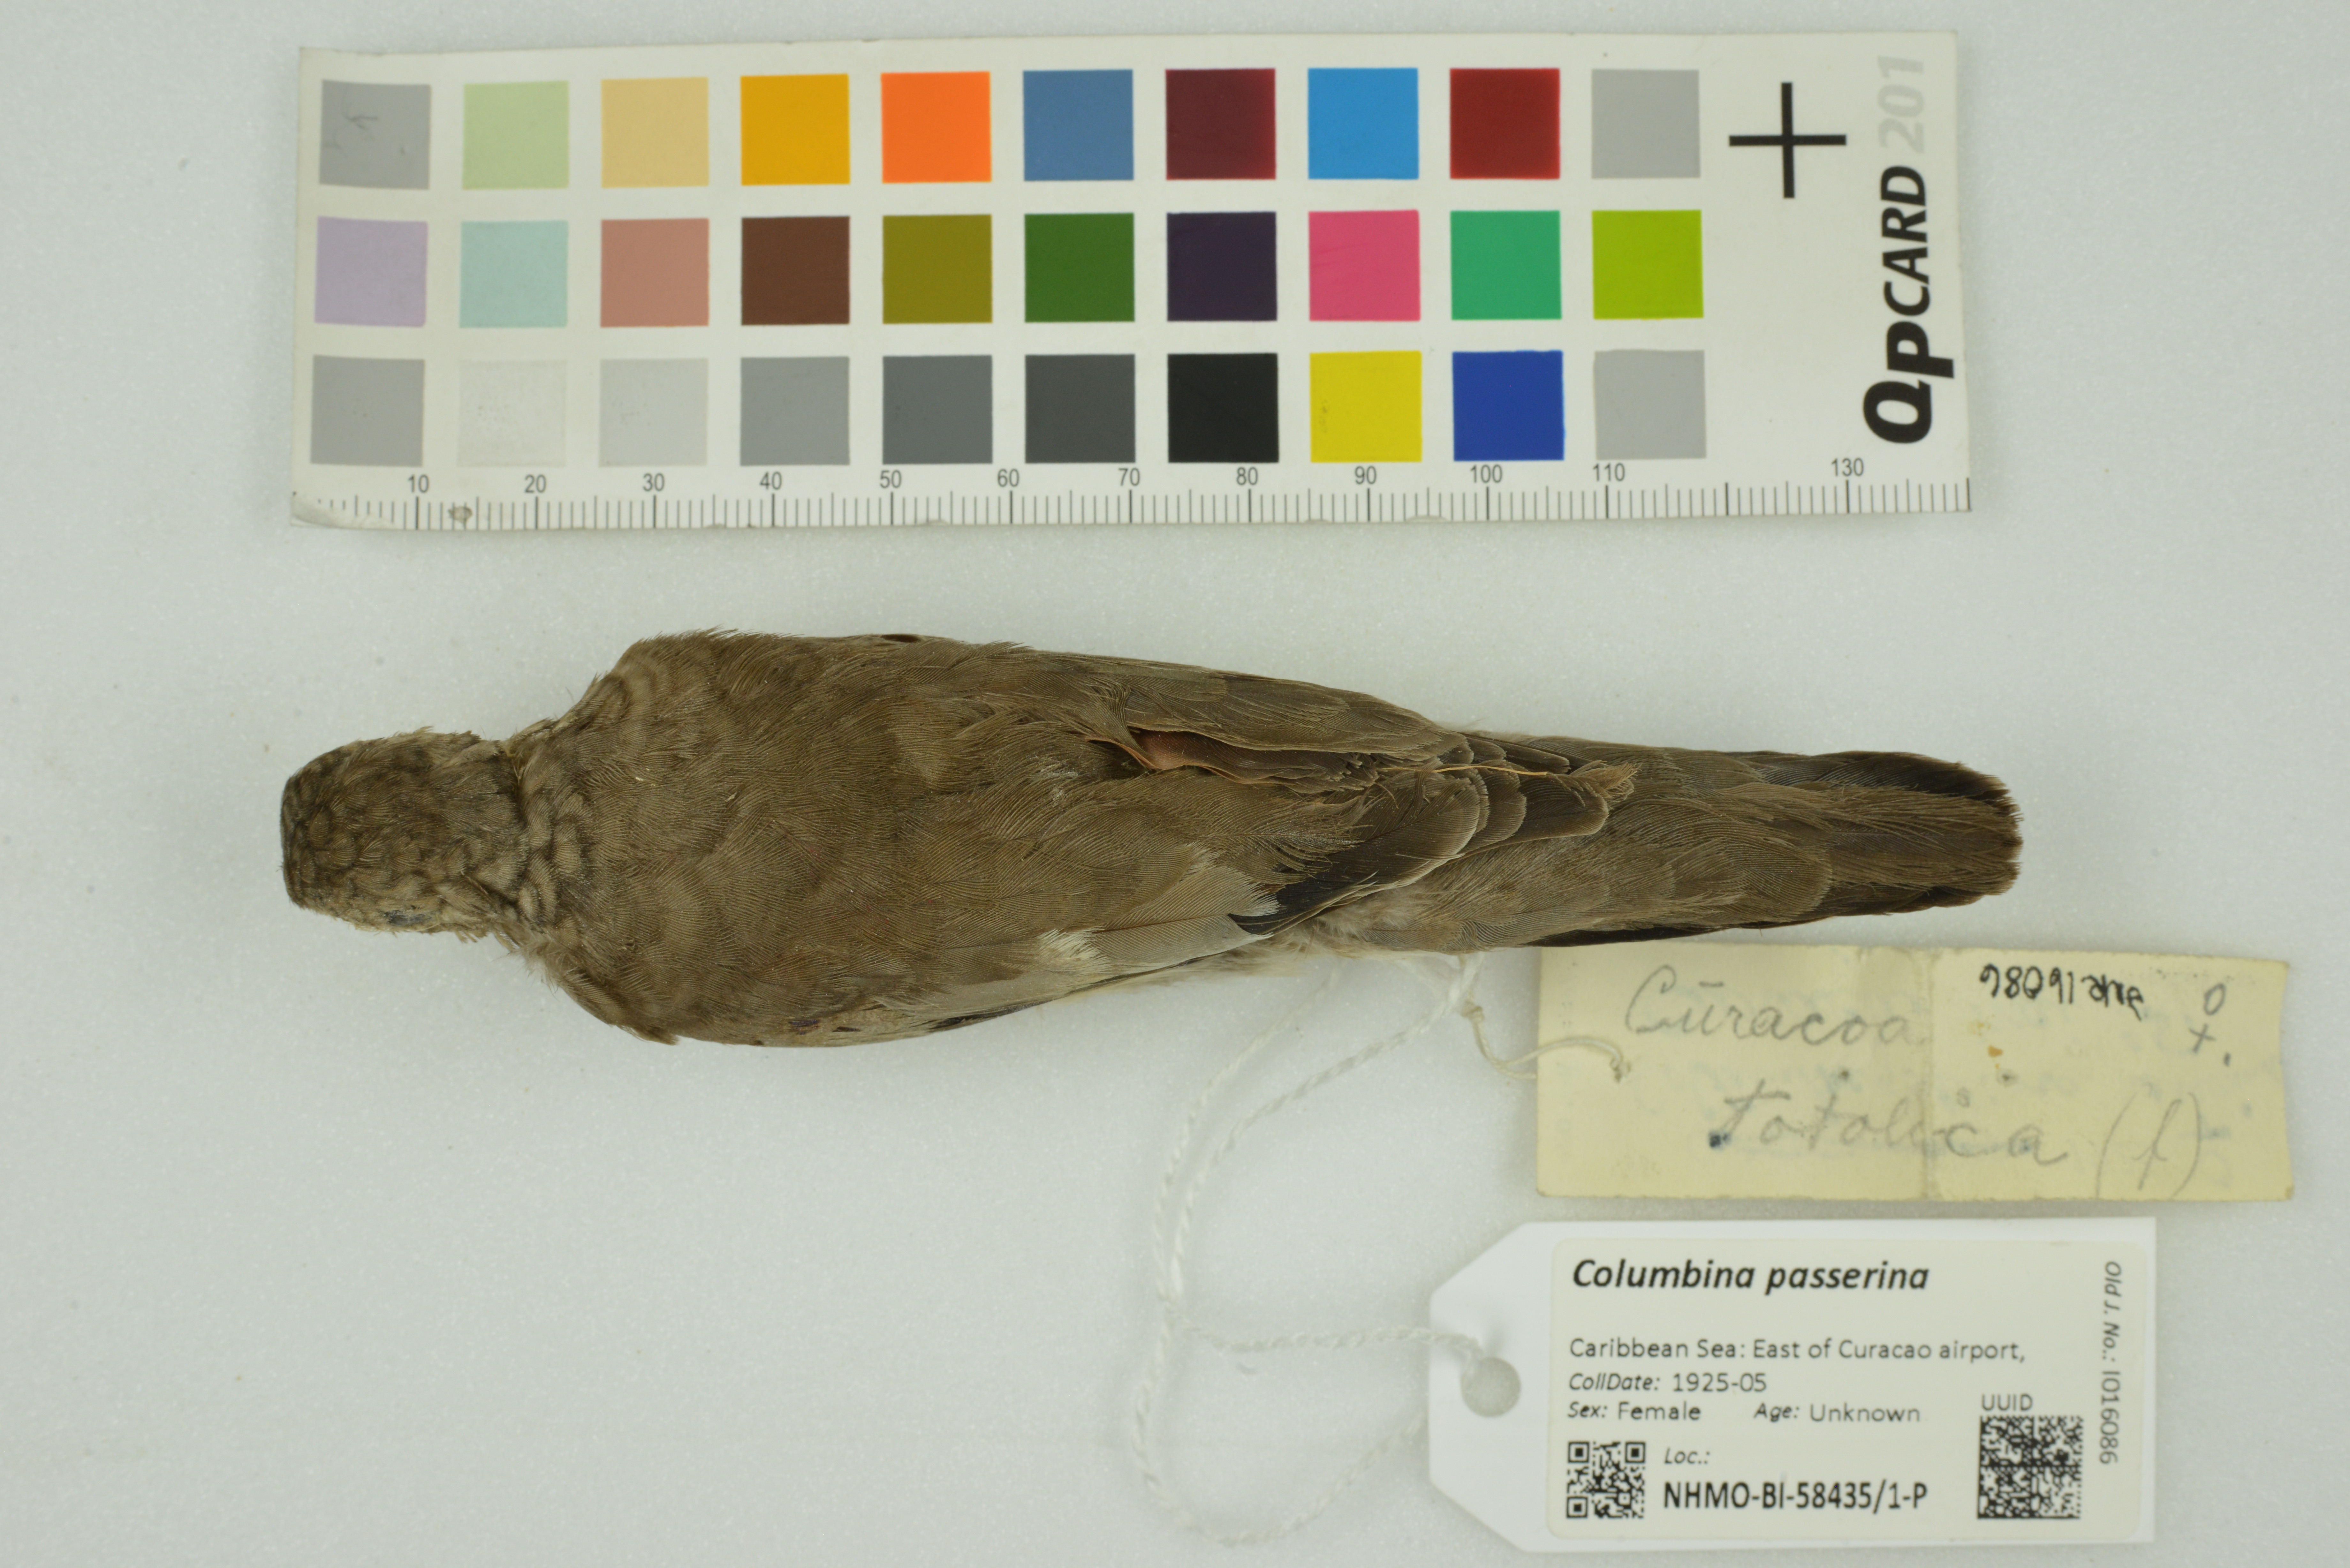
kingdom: Animalia
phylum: Chordata
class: Aves
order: Columbiformes
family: Columbidae
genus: Columbina
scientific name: Columbina passerina
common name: Common ground-dove
